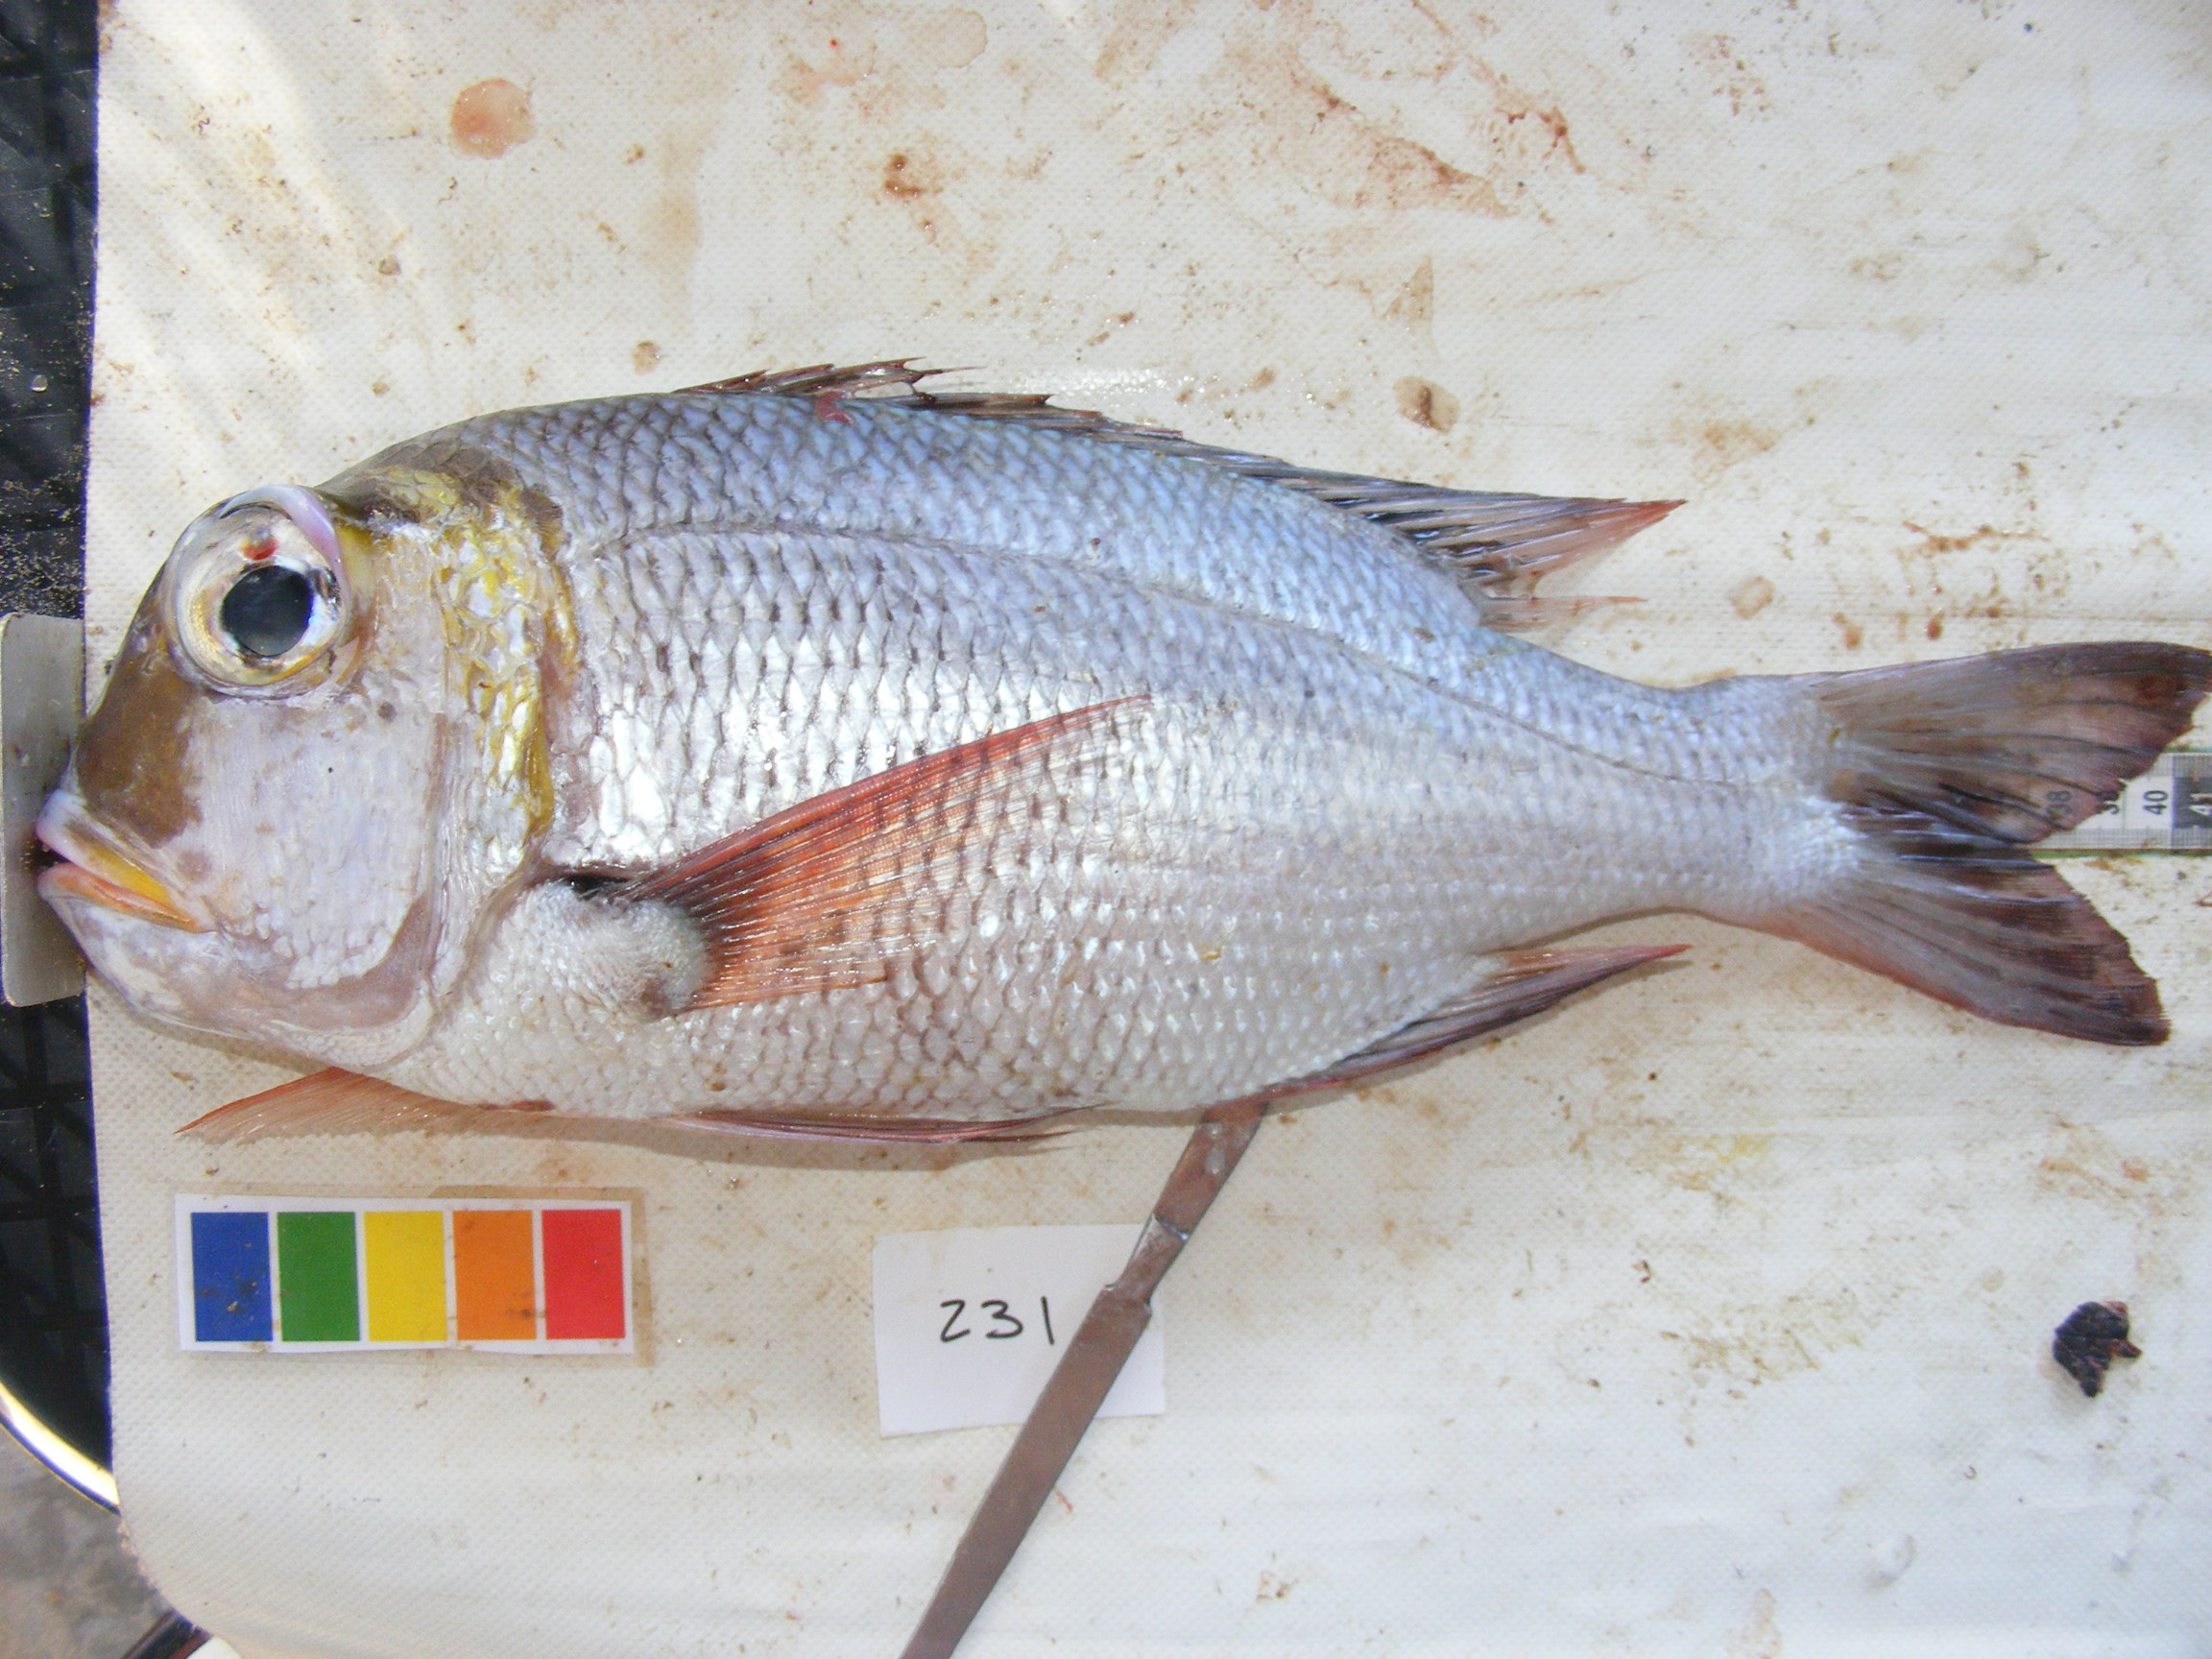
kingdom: Animalia
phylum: Chordata
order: Perciformes
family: Lethrinidae
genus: Monotaxis
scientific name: Monotaxis grandoculis
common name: Bigeye emperor
